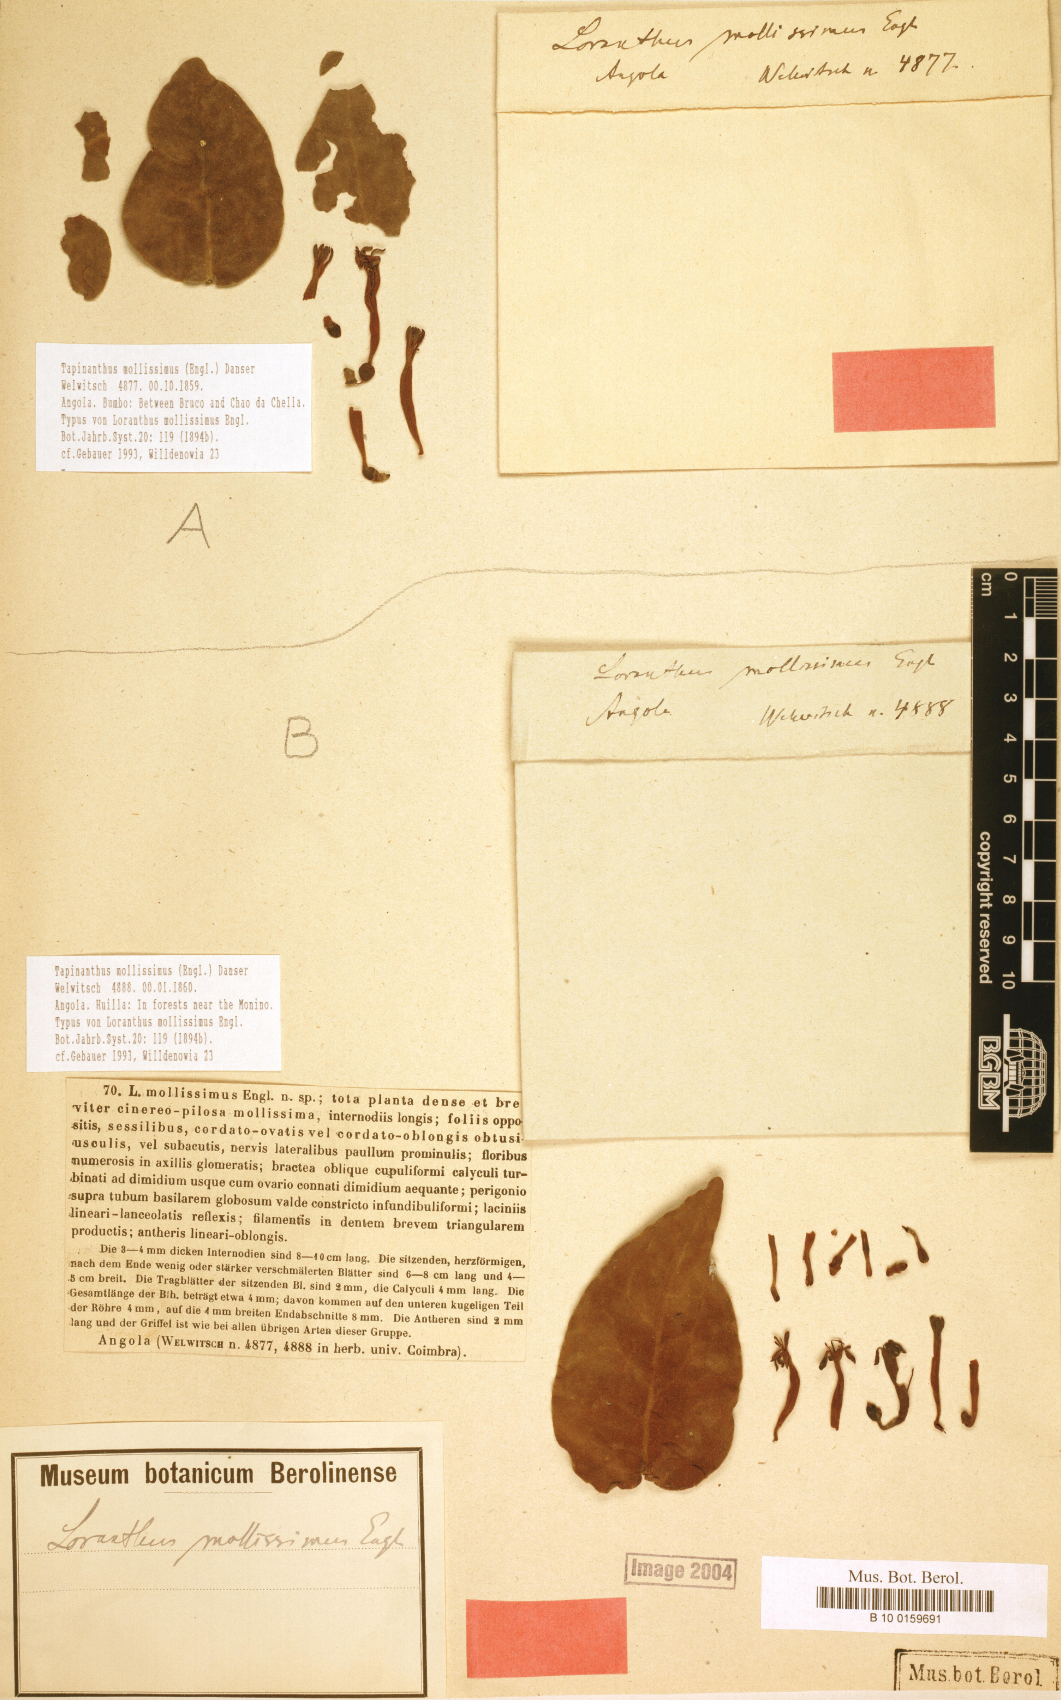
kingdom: Plantae
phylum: Tracheophyta
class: Magnoliopsida
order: Santalales
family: Loranthaceae
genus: Tapinanthus
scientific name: Tapinanthus mollissimus
